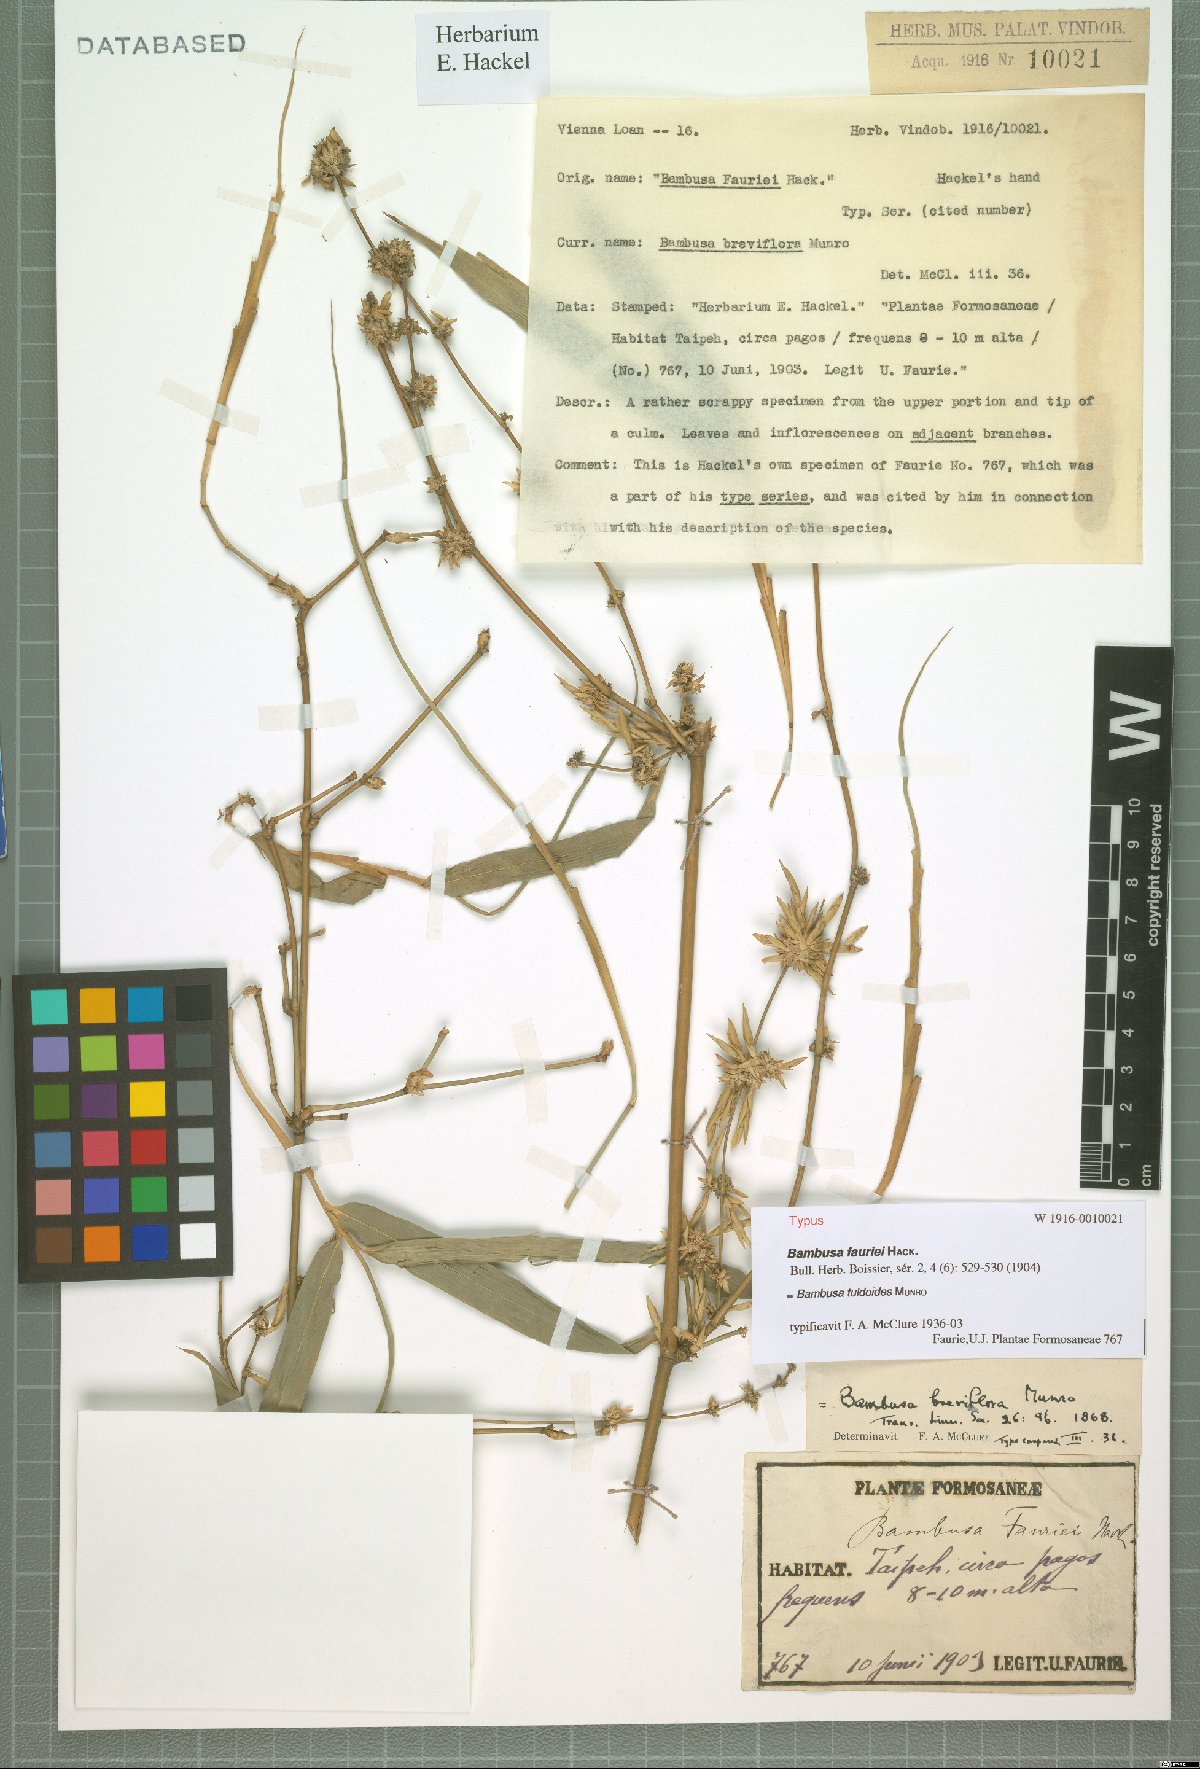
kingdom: Plantae
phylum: Tracheophyta
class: Liliopsida
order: Poales
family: Poaceae
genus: Bambusa
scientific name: Bambusa tuldoides
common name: Verdant bamboo
